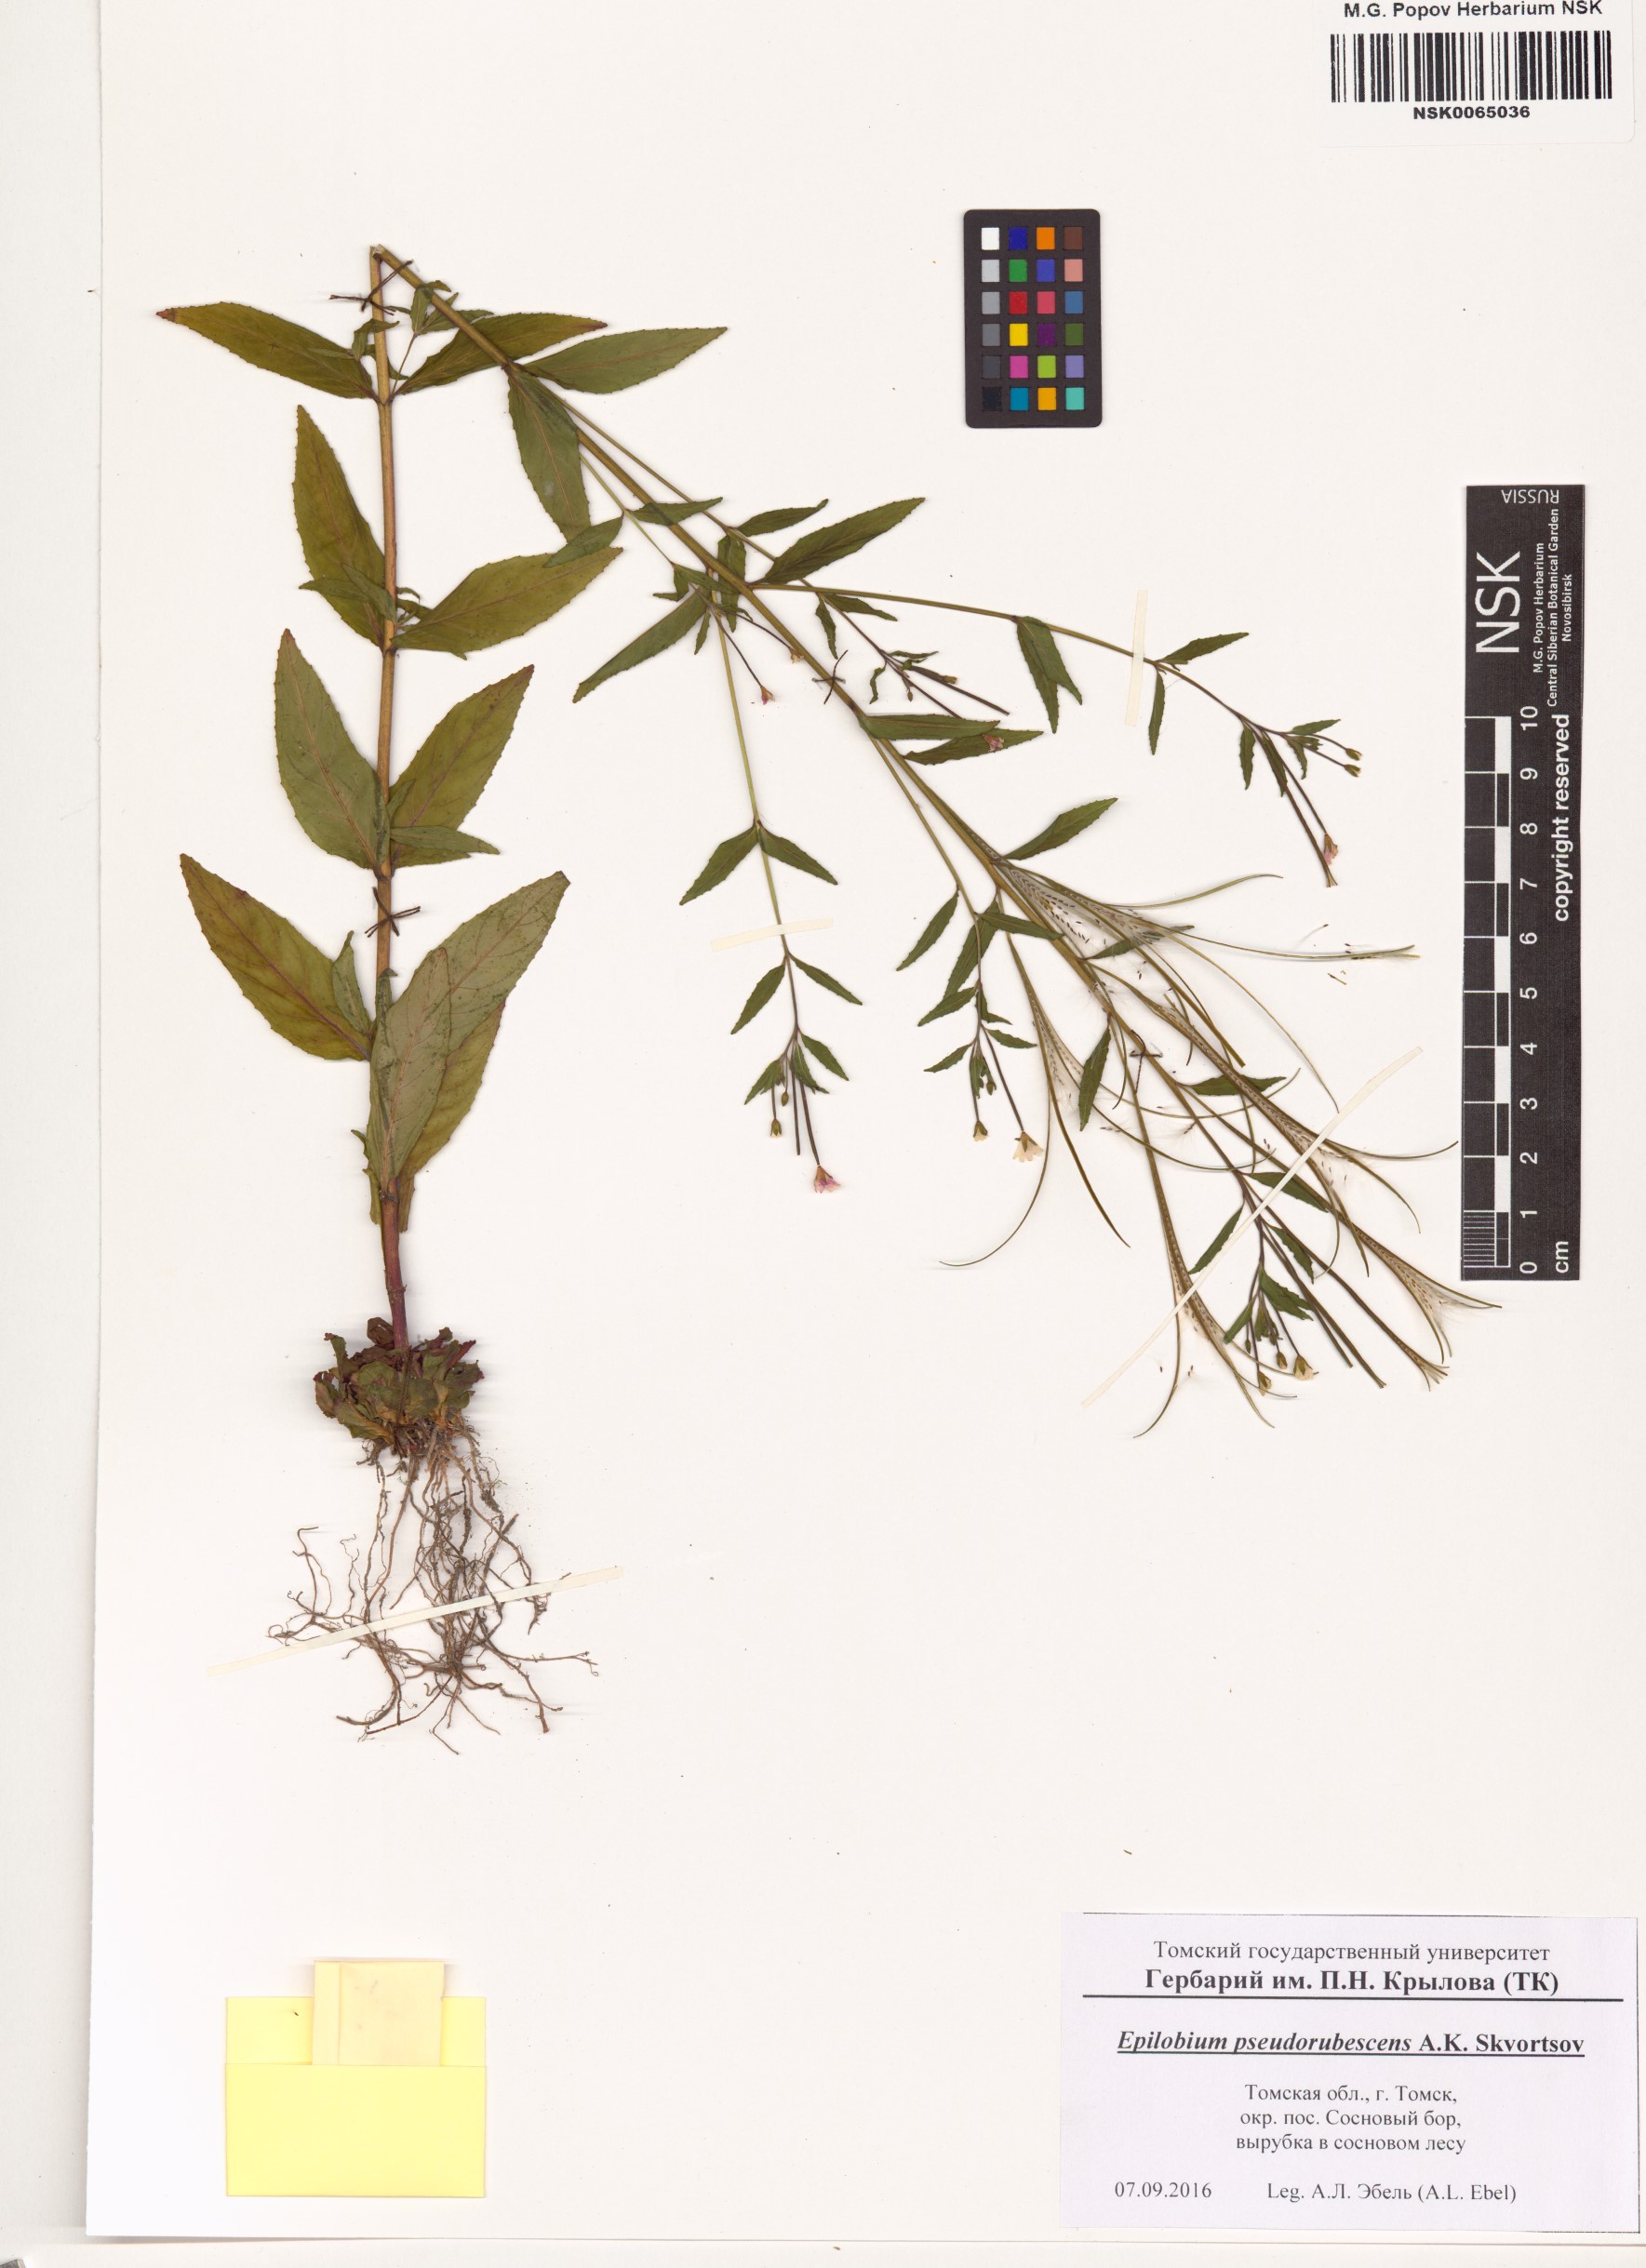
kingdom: Plantae
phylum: Tracheophyta
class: Magnoliopsida
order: Myrtales
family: Onagraceae
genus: Epilobium
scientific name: Epilobium pseudorubescens
